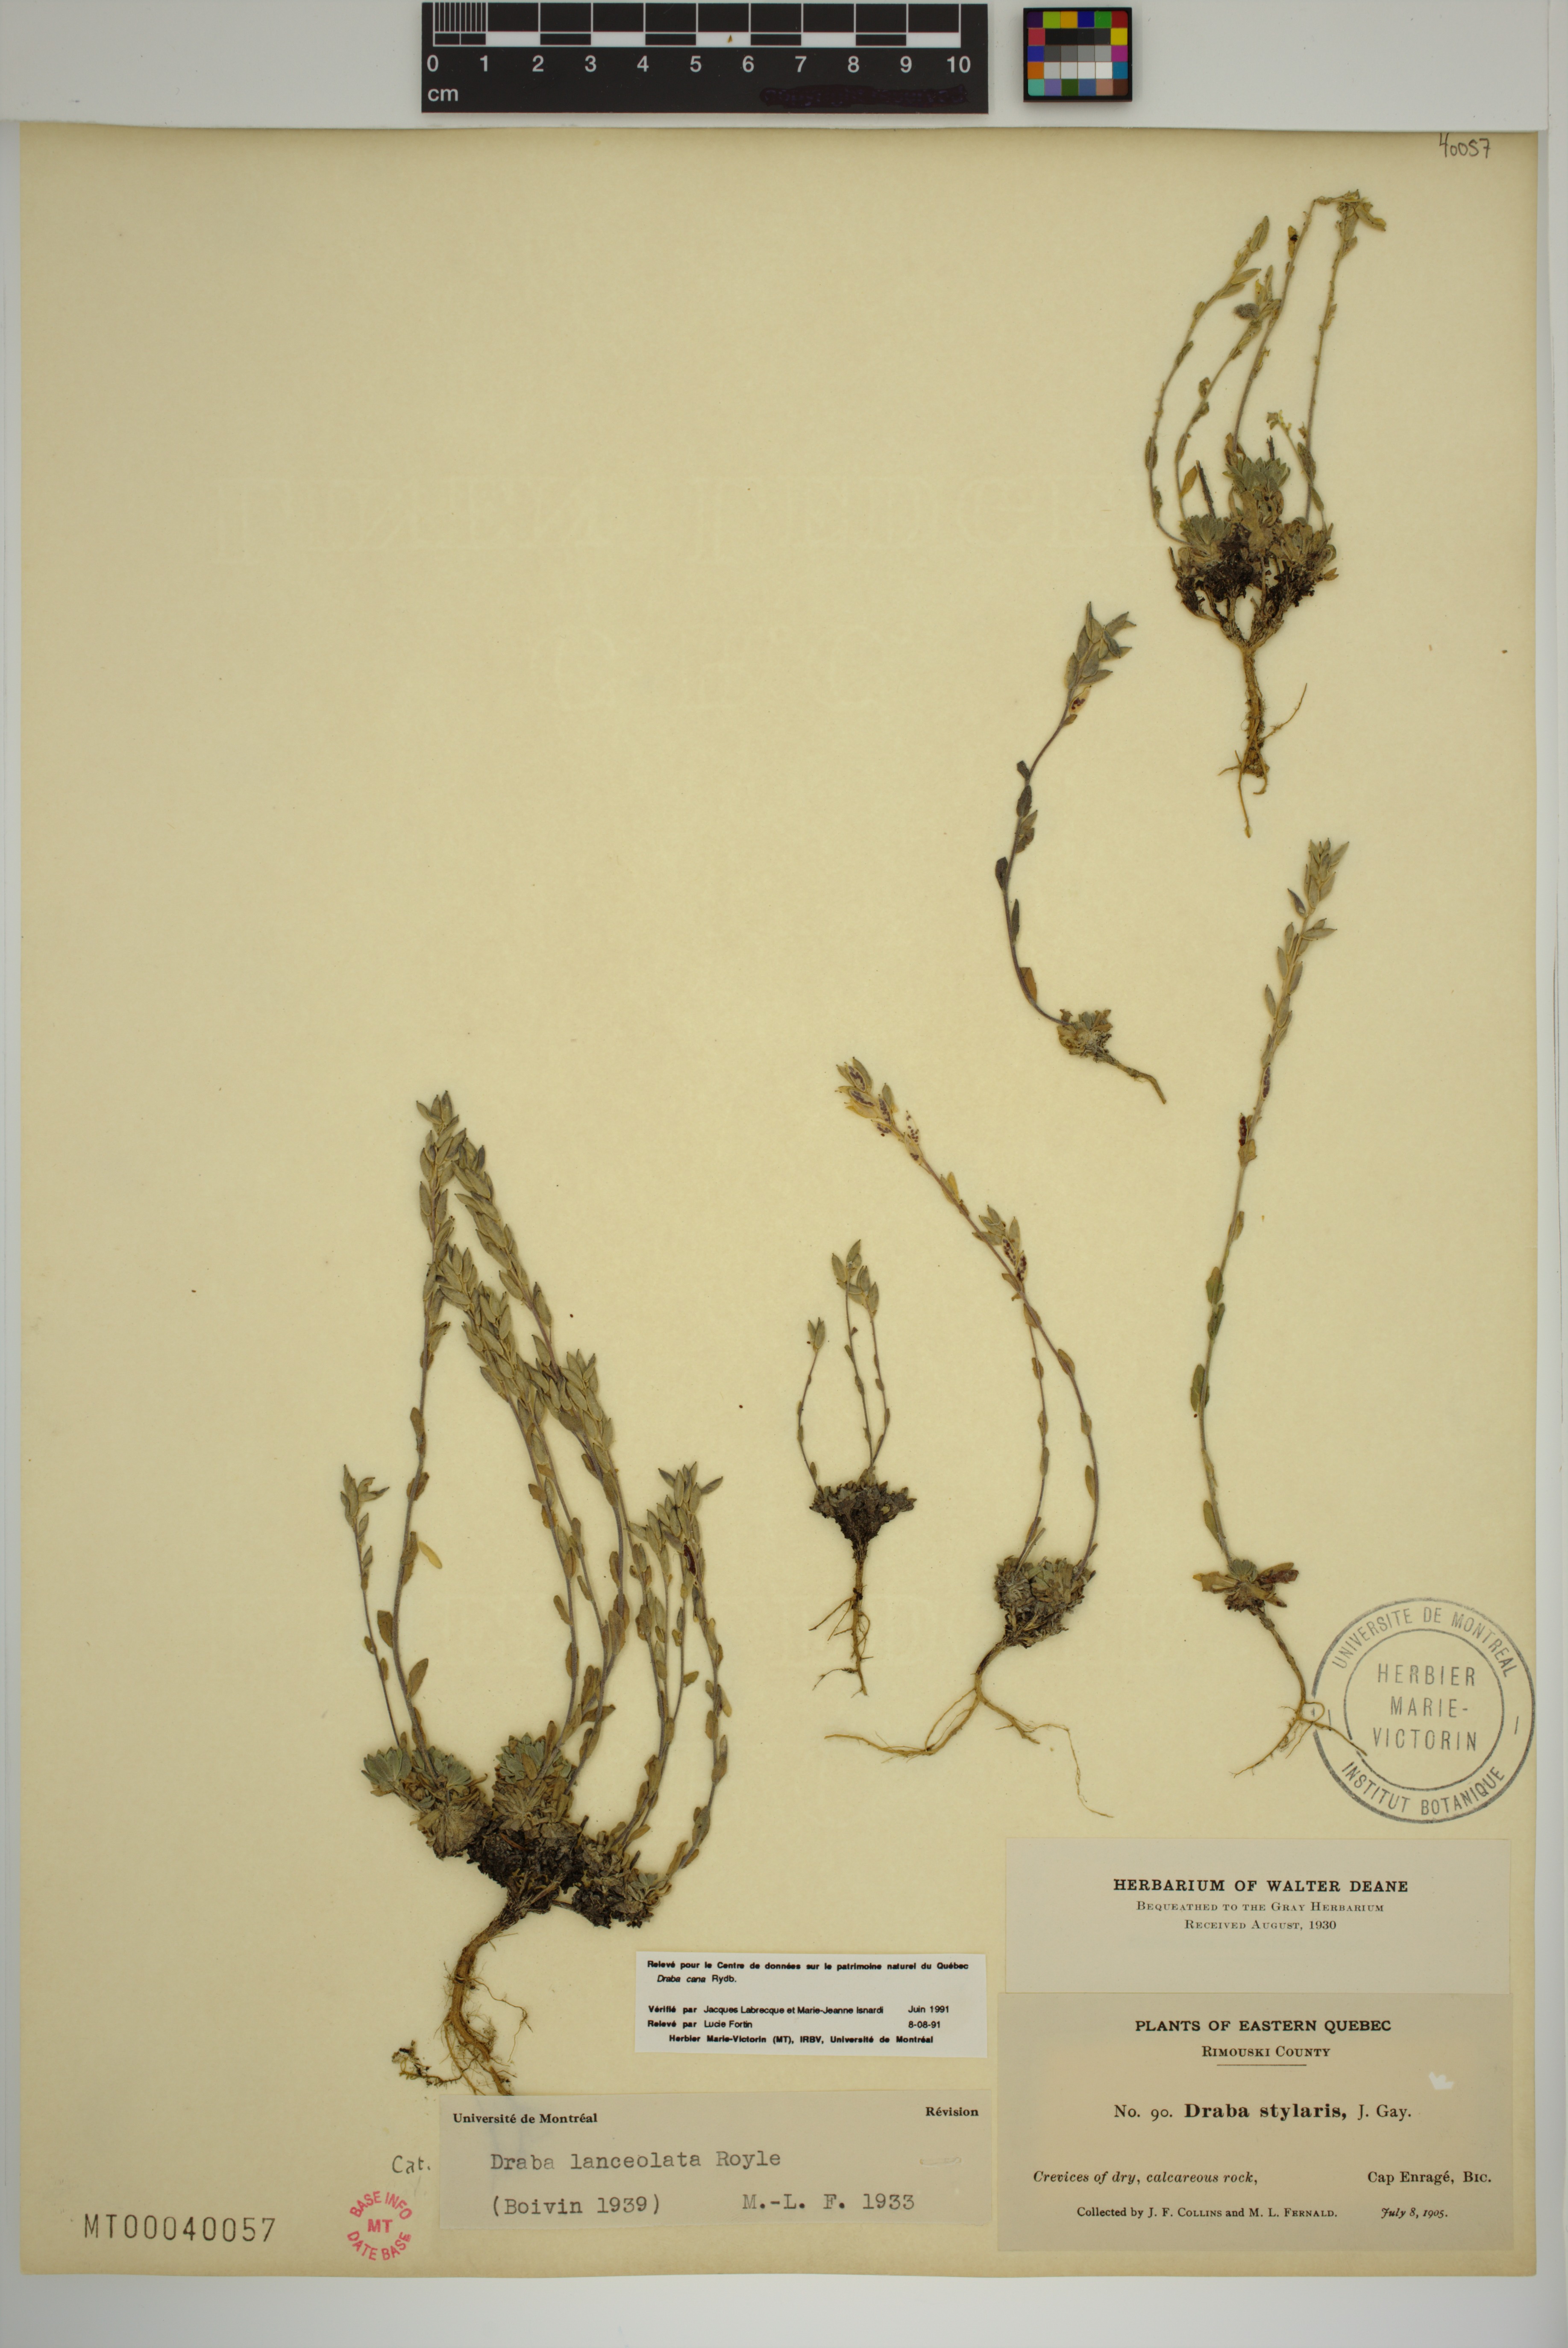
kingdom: Plantae
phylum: Tracheophyta
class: Magnoliopsida
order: Brassicales
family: Brassicaceae
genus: Draba
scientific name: Draba lanceolata
